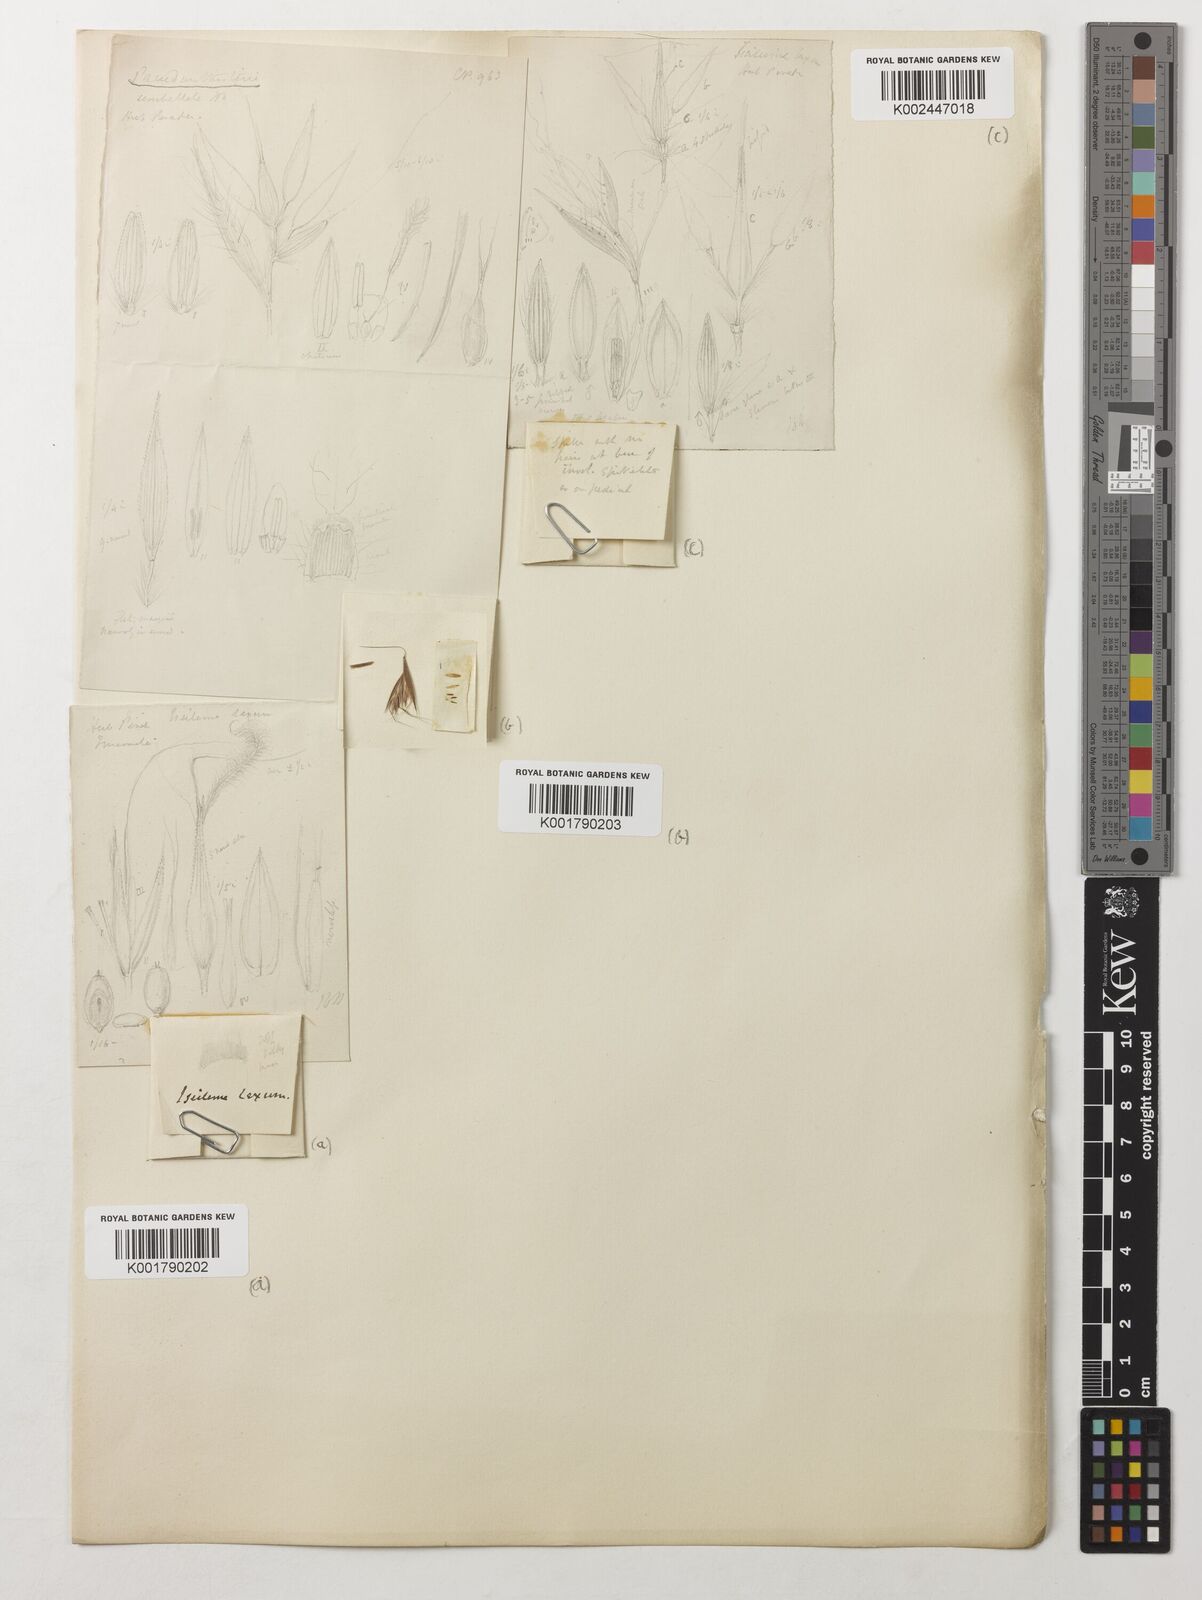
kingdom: Plantae
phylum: Tracheophyta
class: Liliopsida
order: Poales
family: Poaceae
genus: Pseudanthistiria
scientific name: Pseudanthistiria umbellata
